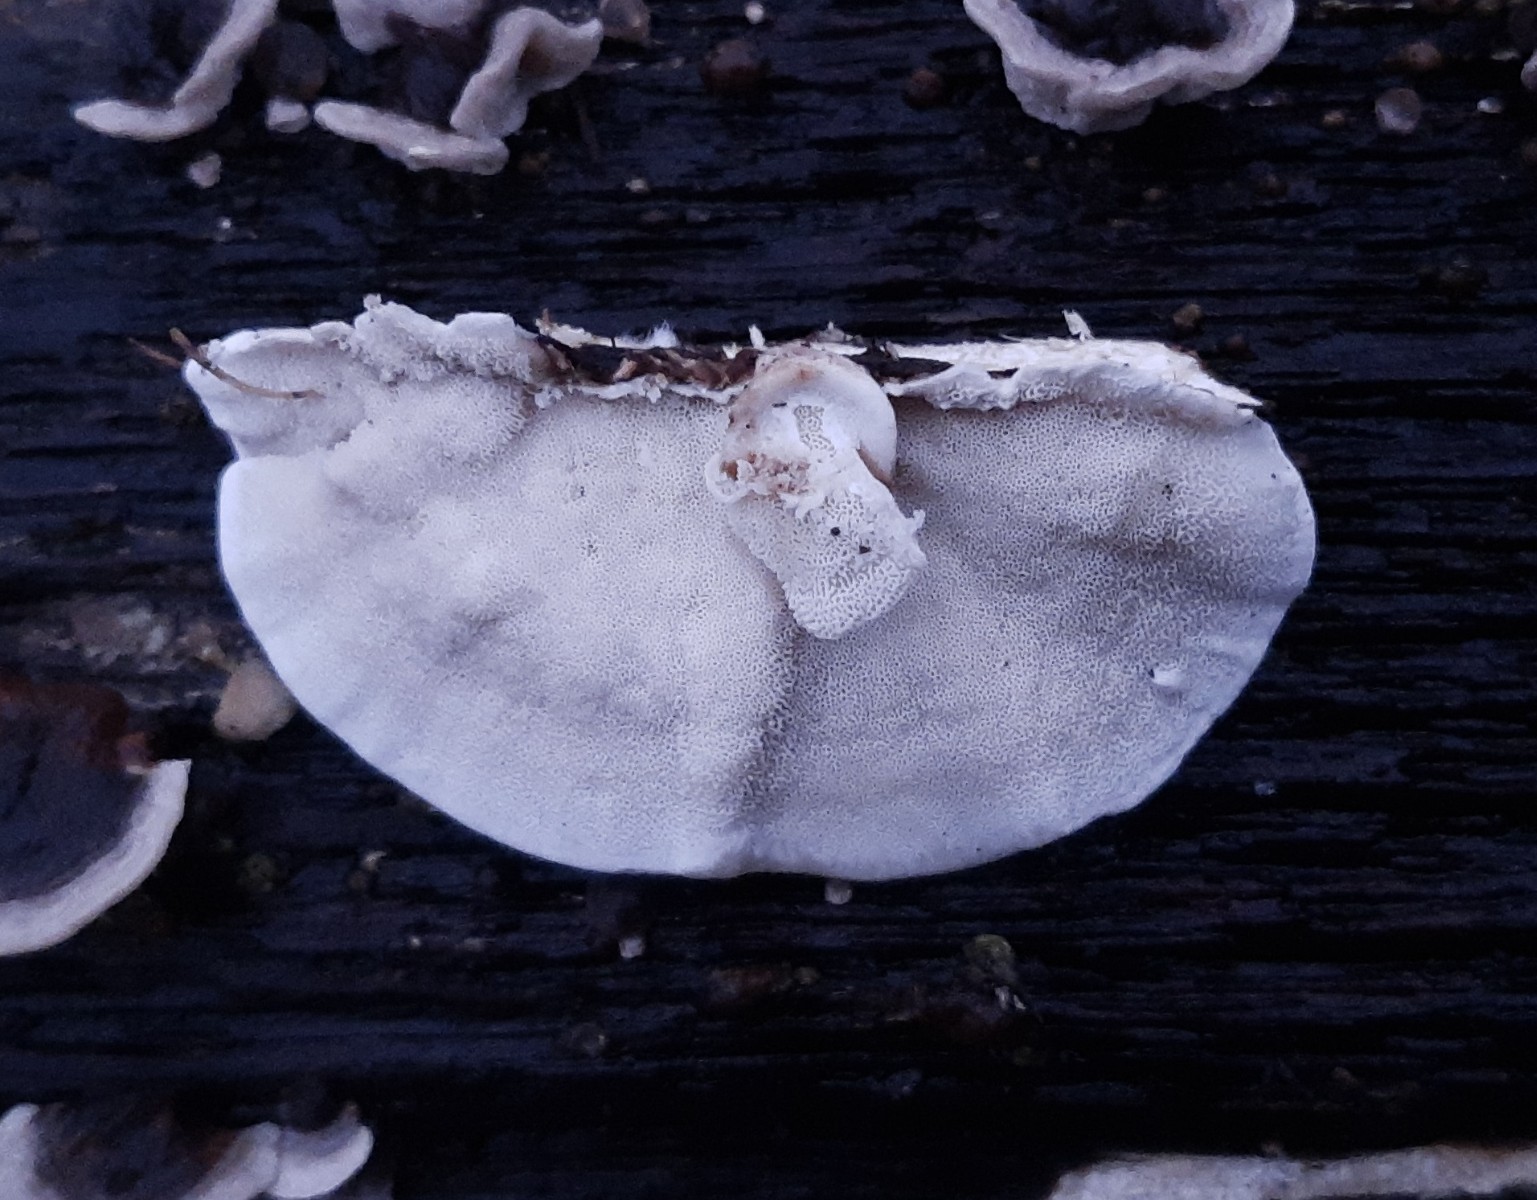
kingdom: Fungi
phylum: Basidiomycota
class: Agaricomycetes
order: Polyporales
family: Polyporaceae
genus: Trametes
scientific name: Trametes versicolor
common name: broget læderporesvamp
